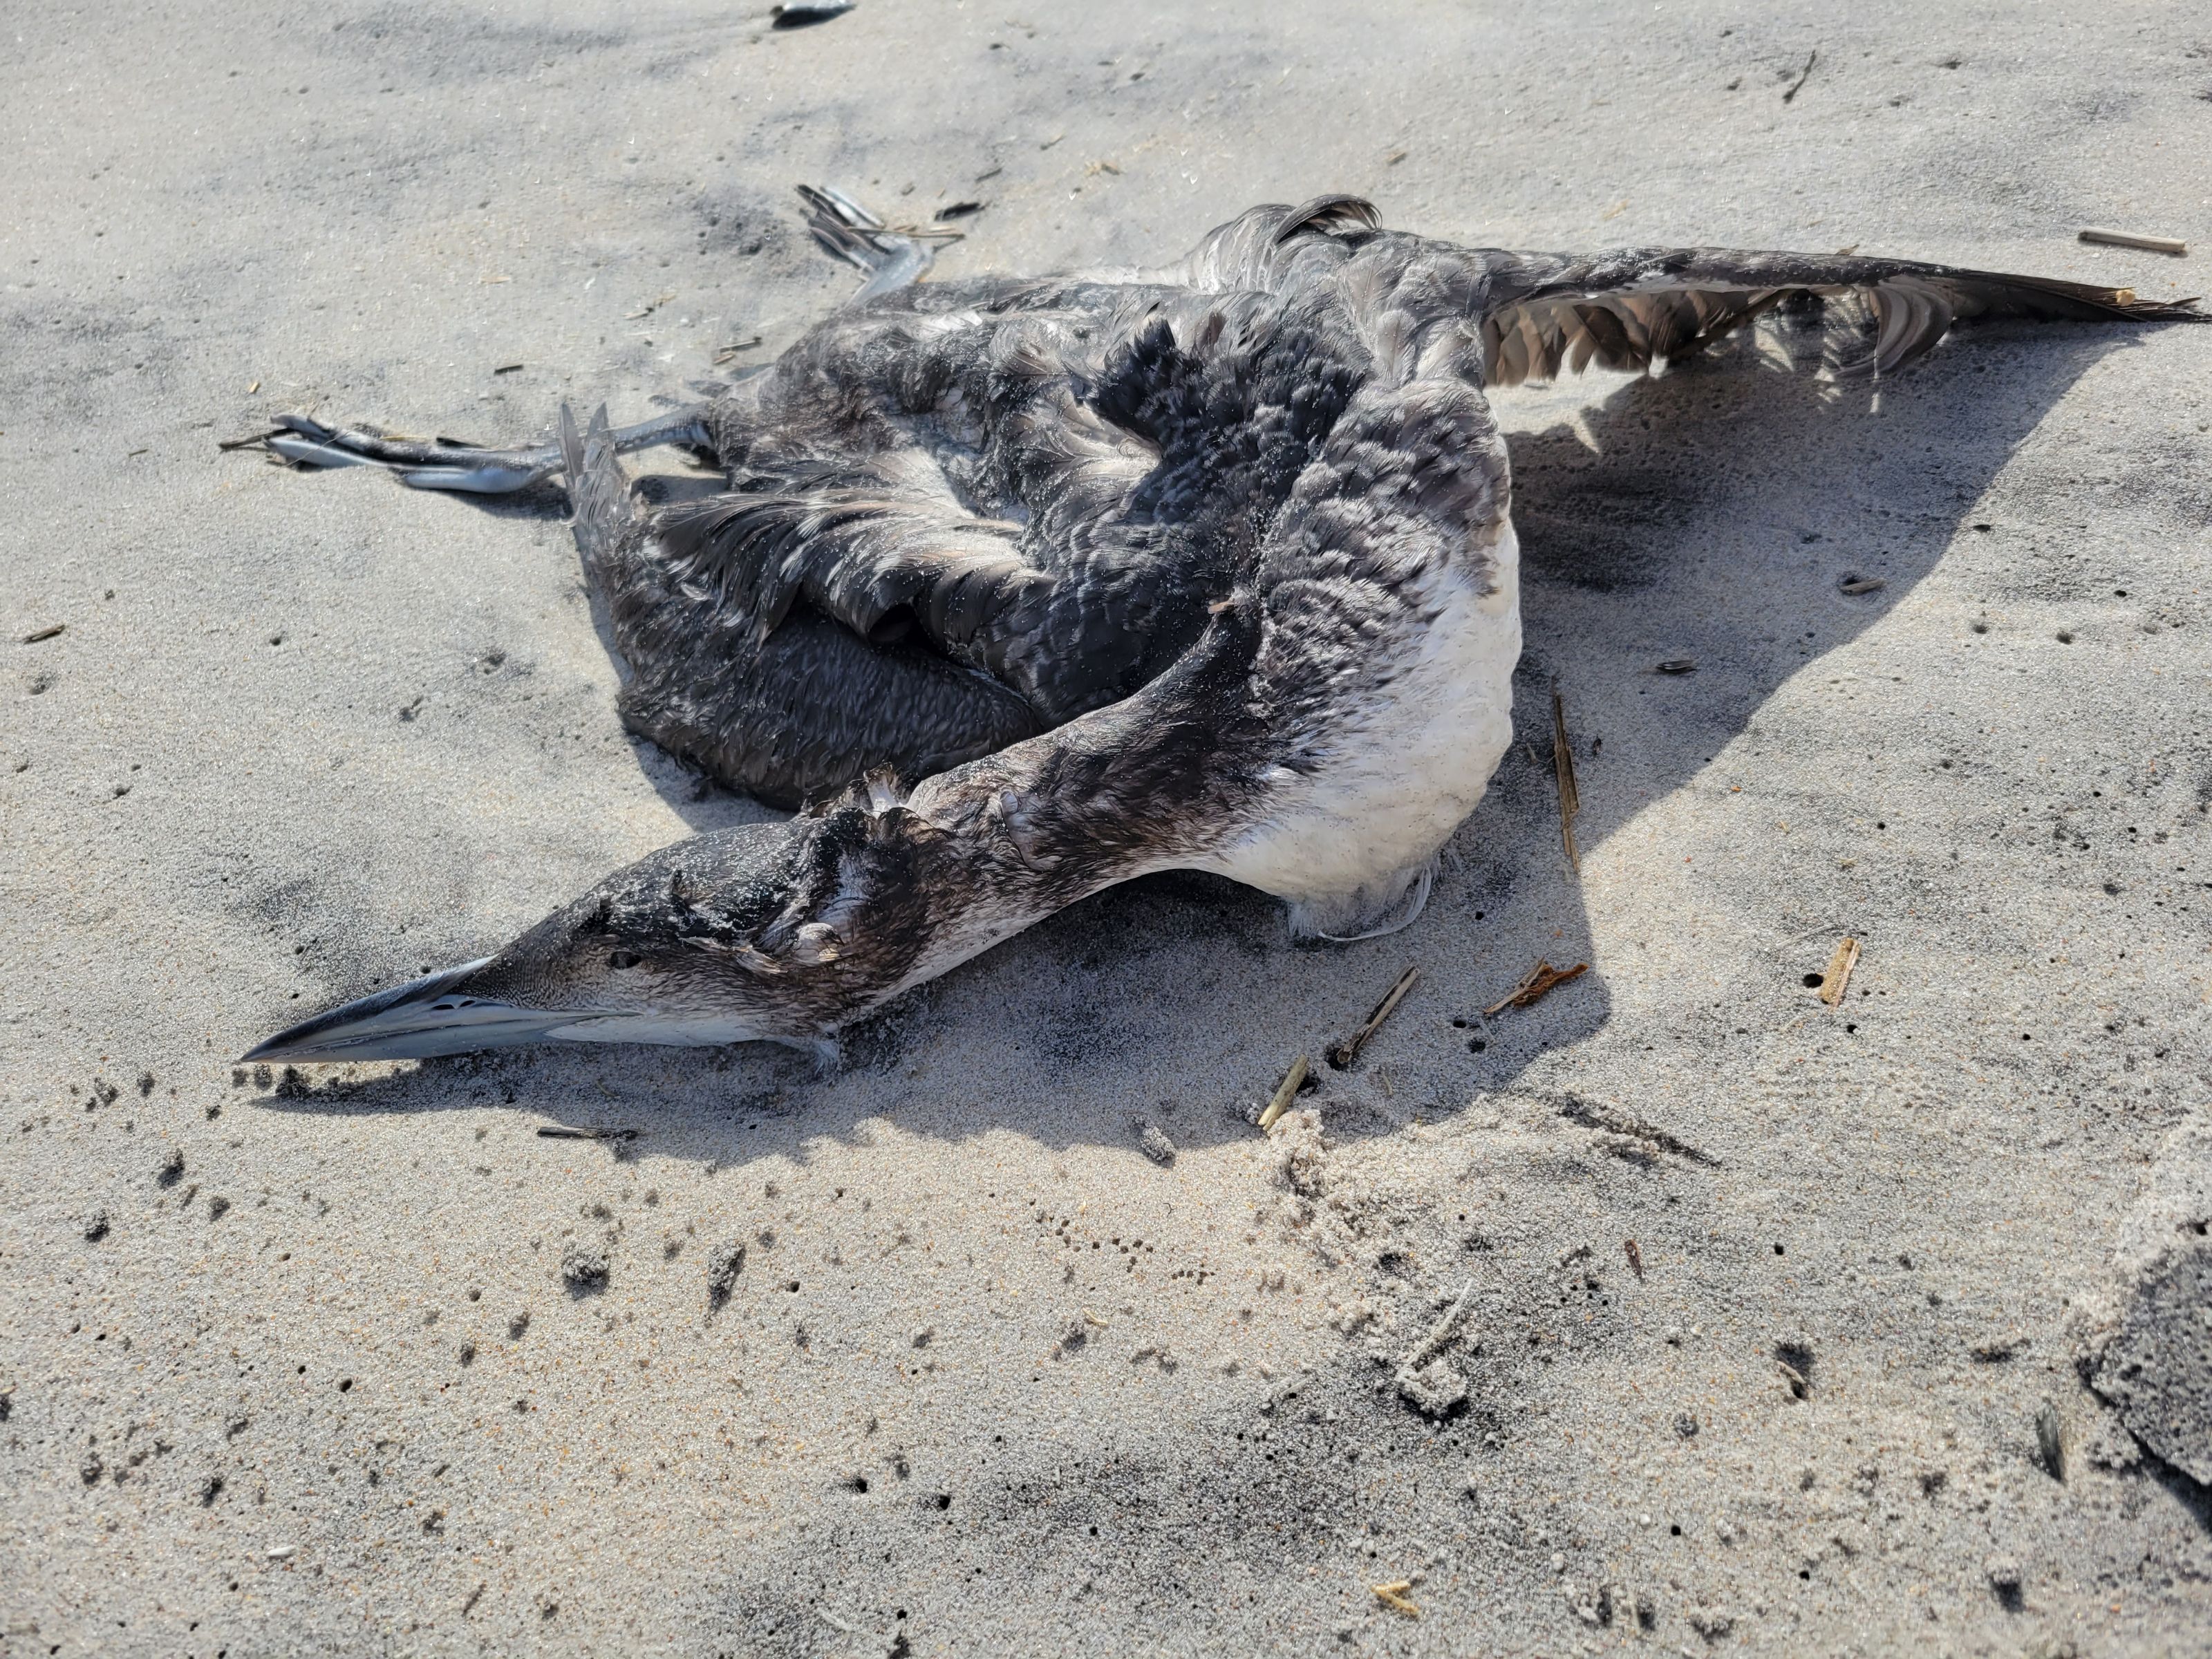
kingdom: Animalia
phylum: Chordata
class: Aves
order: Gaviiformes
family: Gaviidae
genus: Gavia
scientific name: Gavia stellata
